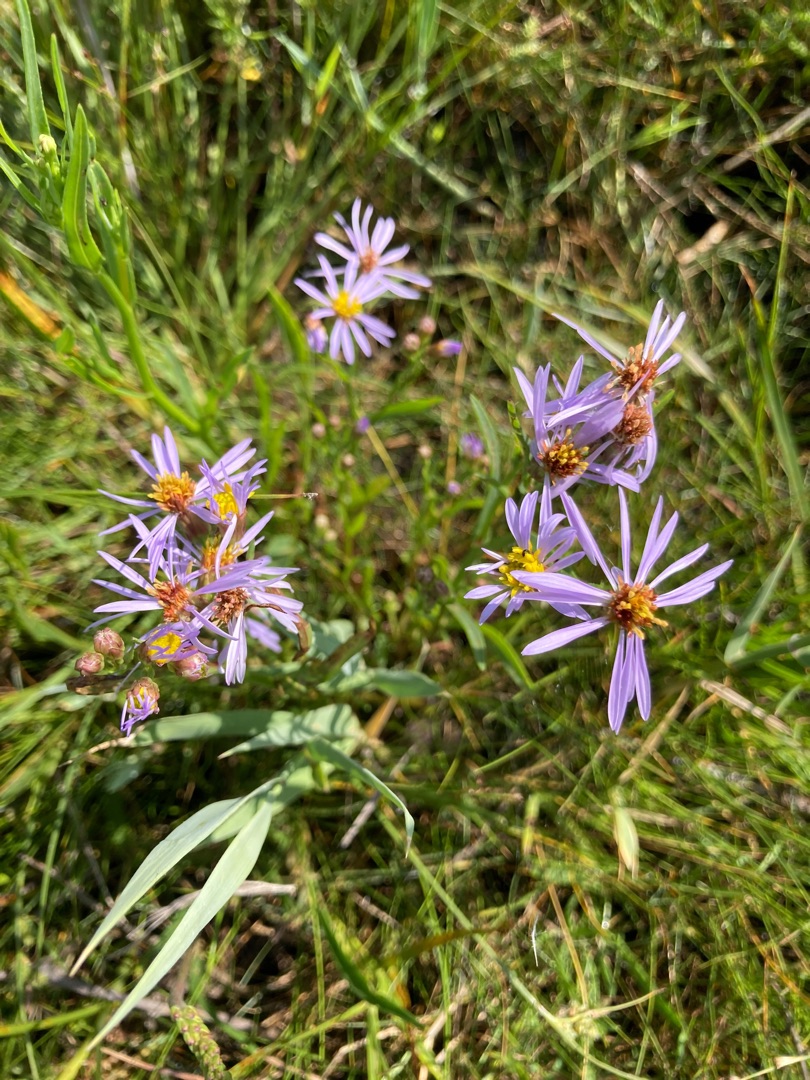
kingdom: Plantae
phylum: Tracheophyta
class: Magnoliopsida
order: Asterales
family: Asteraceae
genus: Tripolium
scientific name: Tripolium pannonicum
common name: Strandasters
